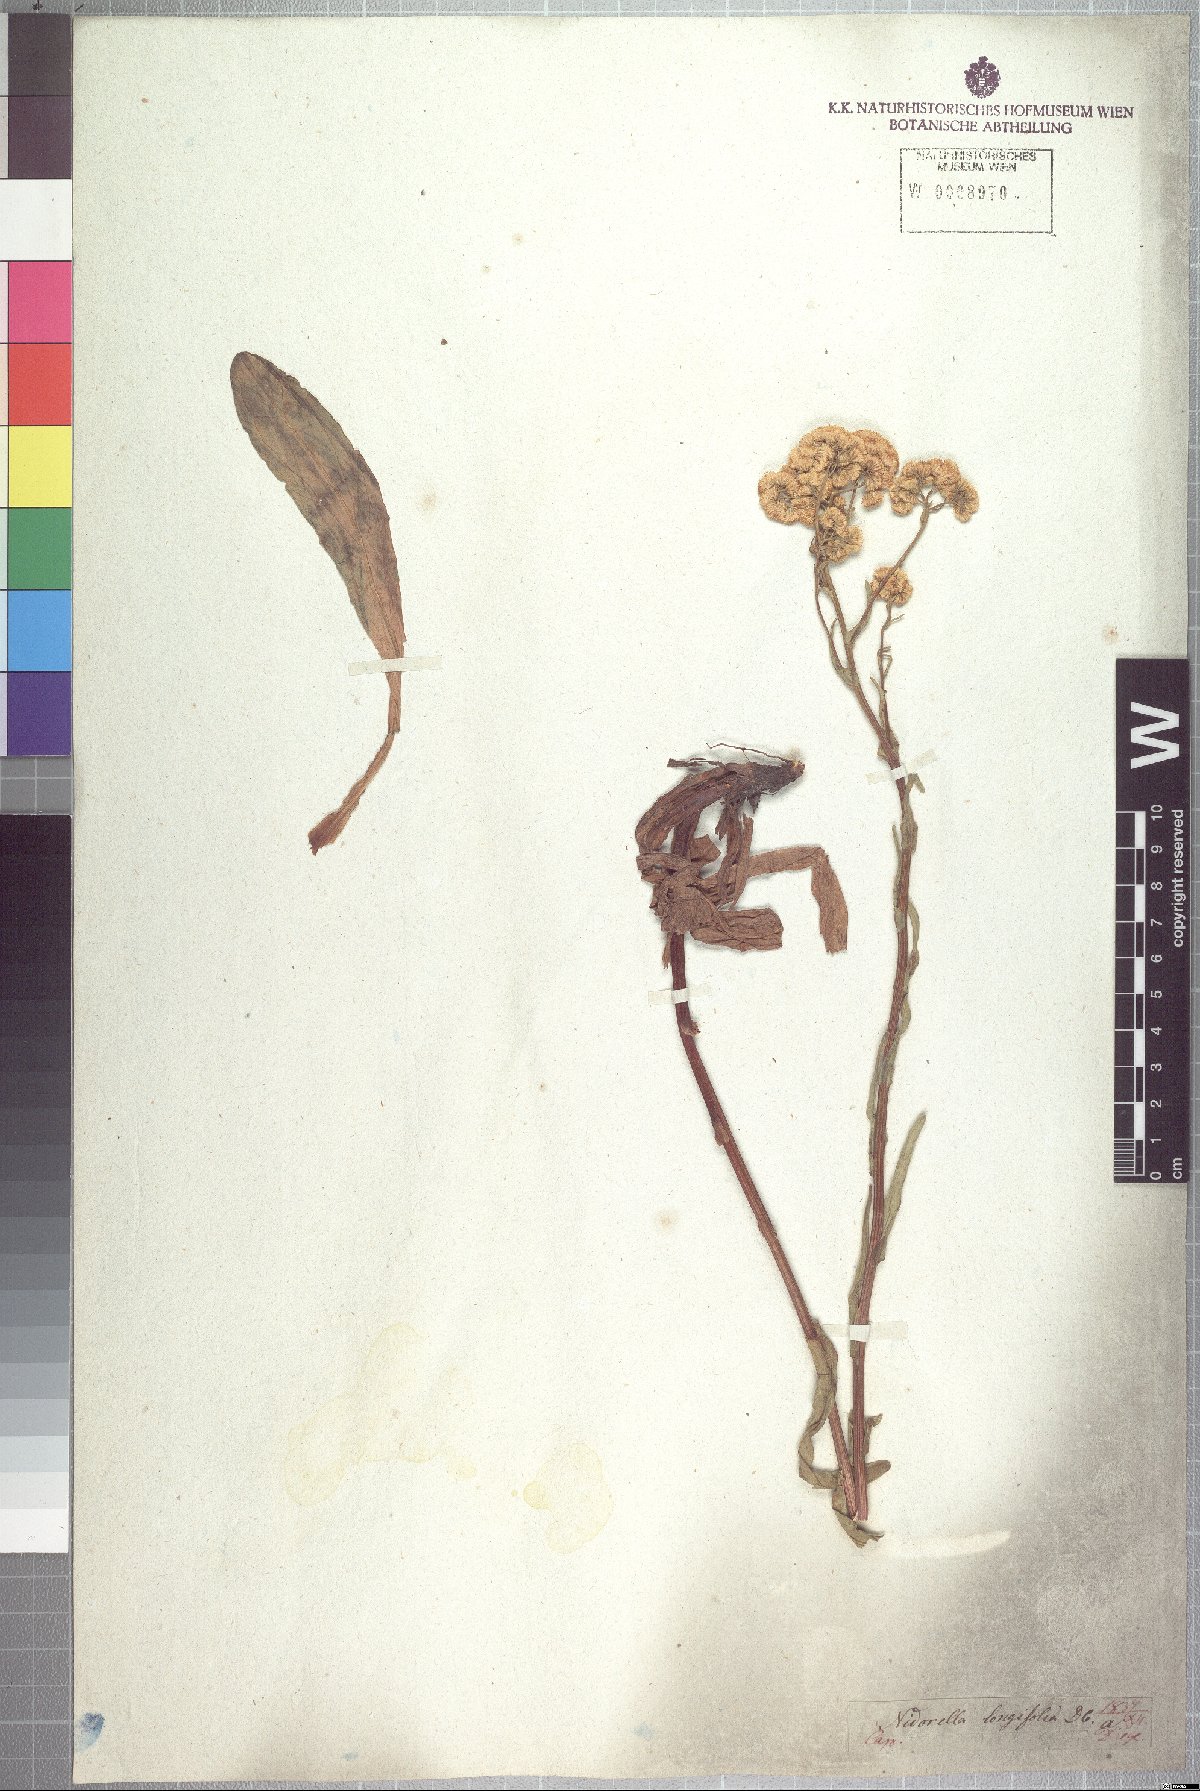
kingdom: Plantae
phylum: Tracheophyta
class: Magnoliopsida
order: Asterales
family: Asteraceae
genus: Nidorella
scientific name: Nidorella undulata
